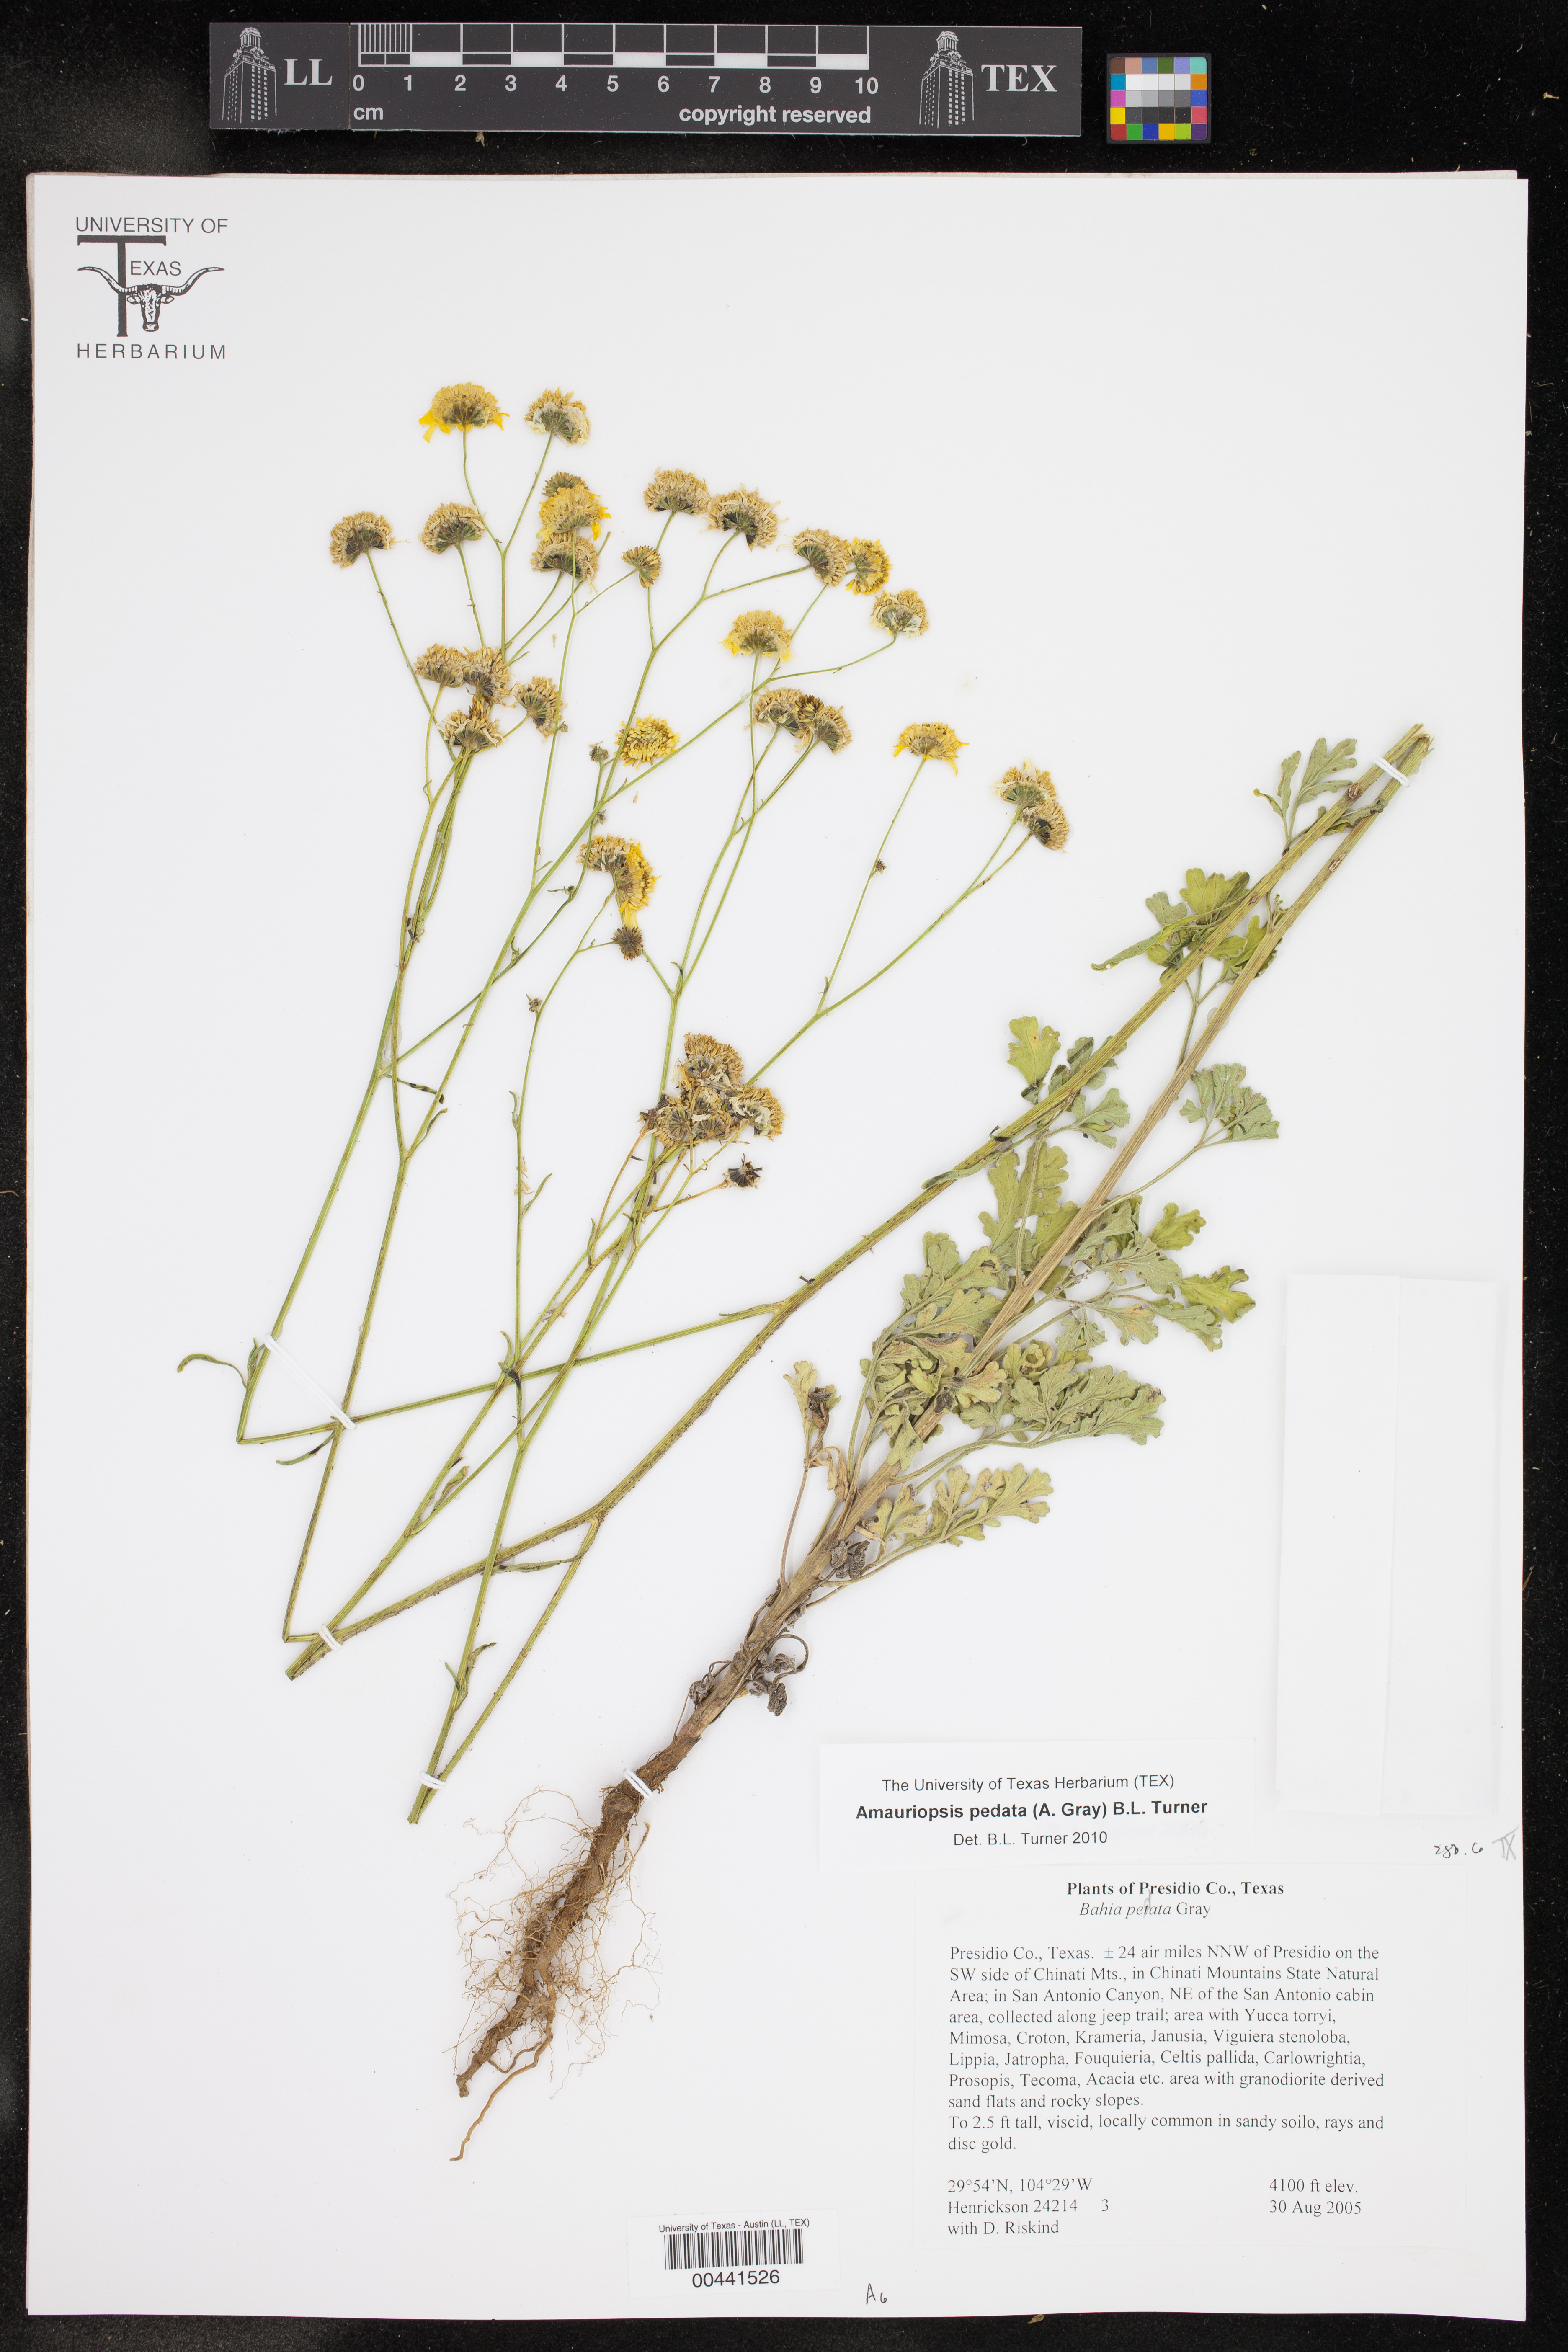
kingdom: Plantae
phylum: Tracheophyta
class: Magnoliopsida
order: Asterales
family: Asteraceae
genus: Hymenothrix
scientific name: Hymenothrix pedata
